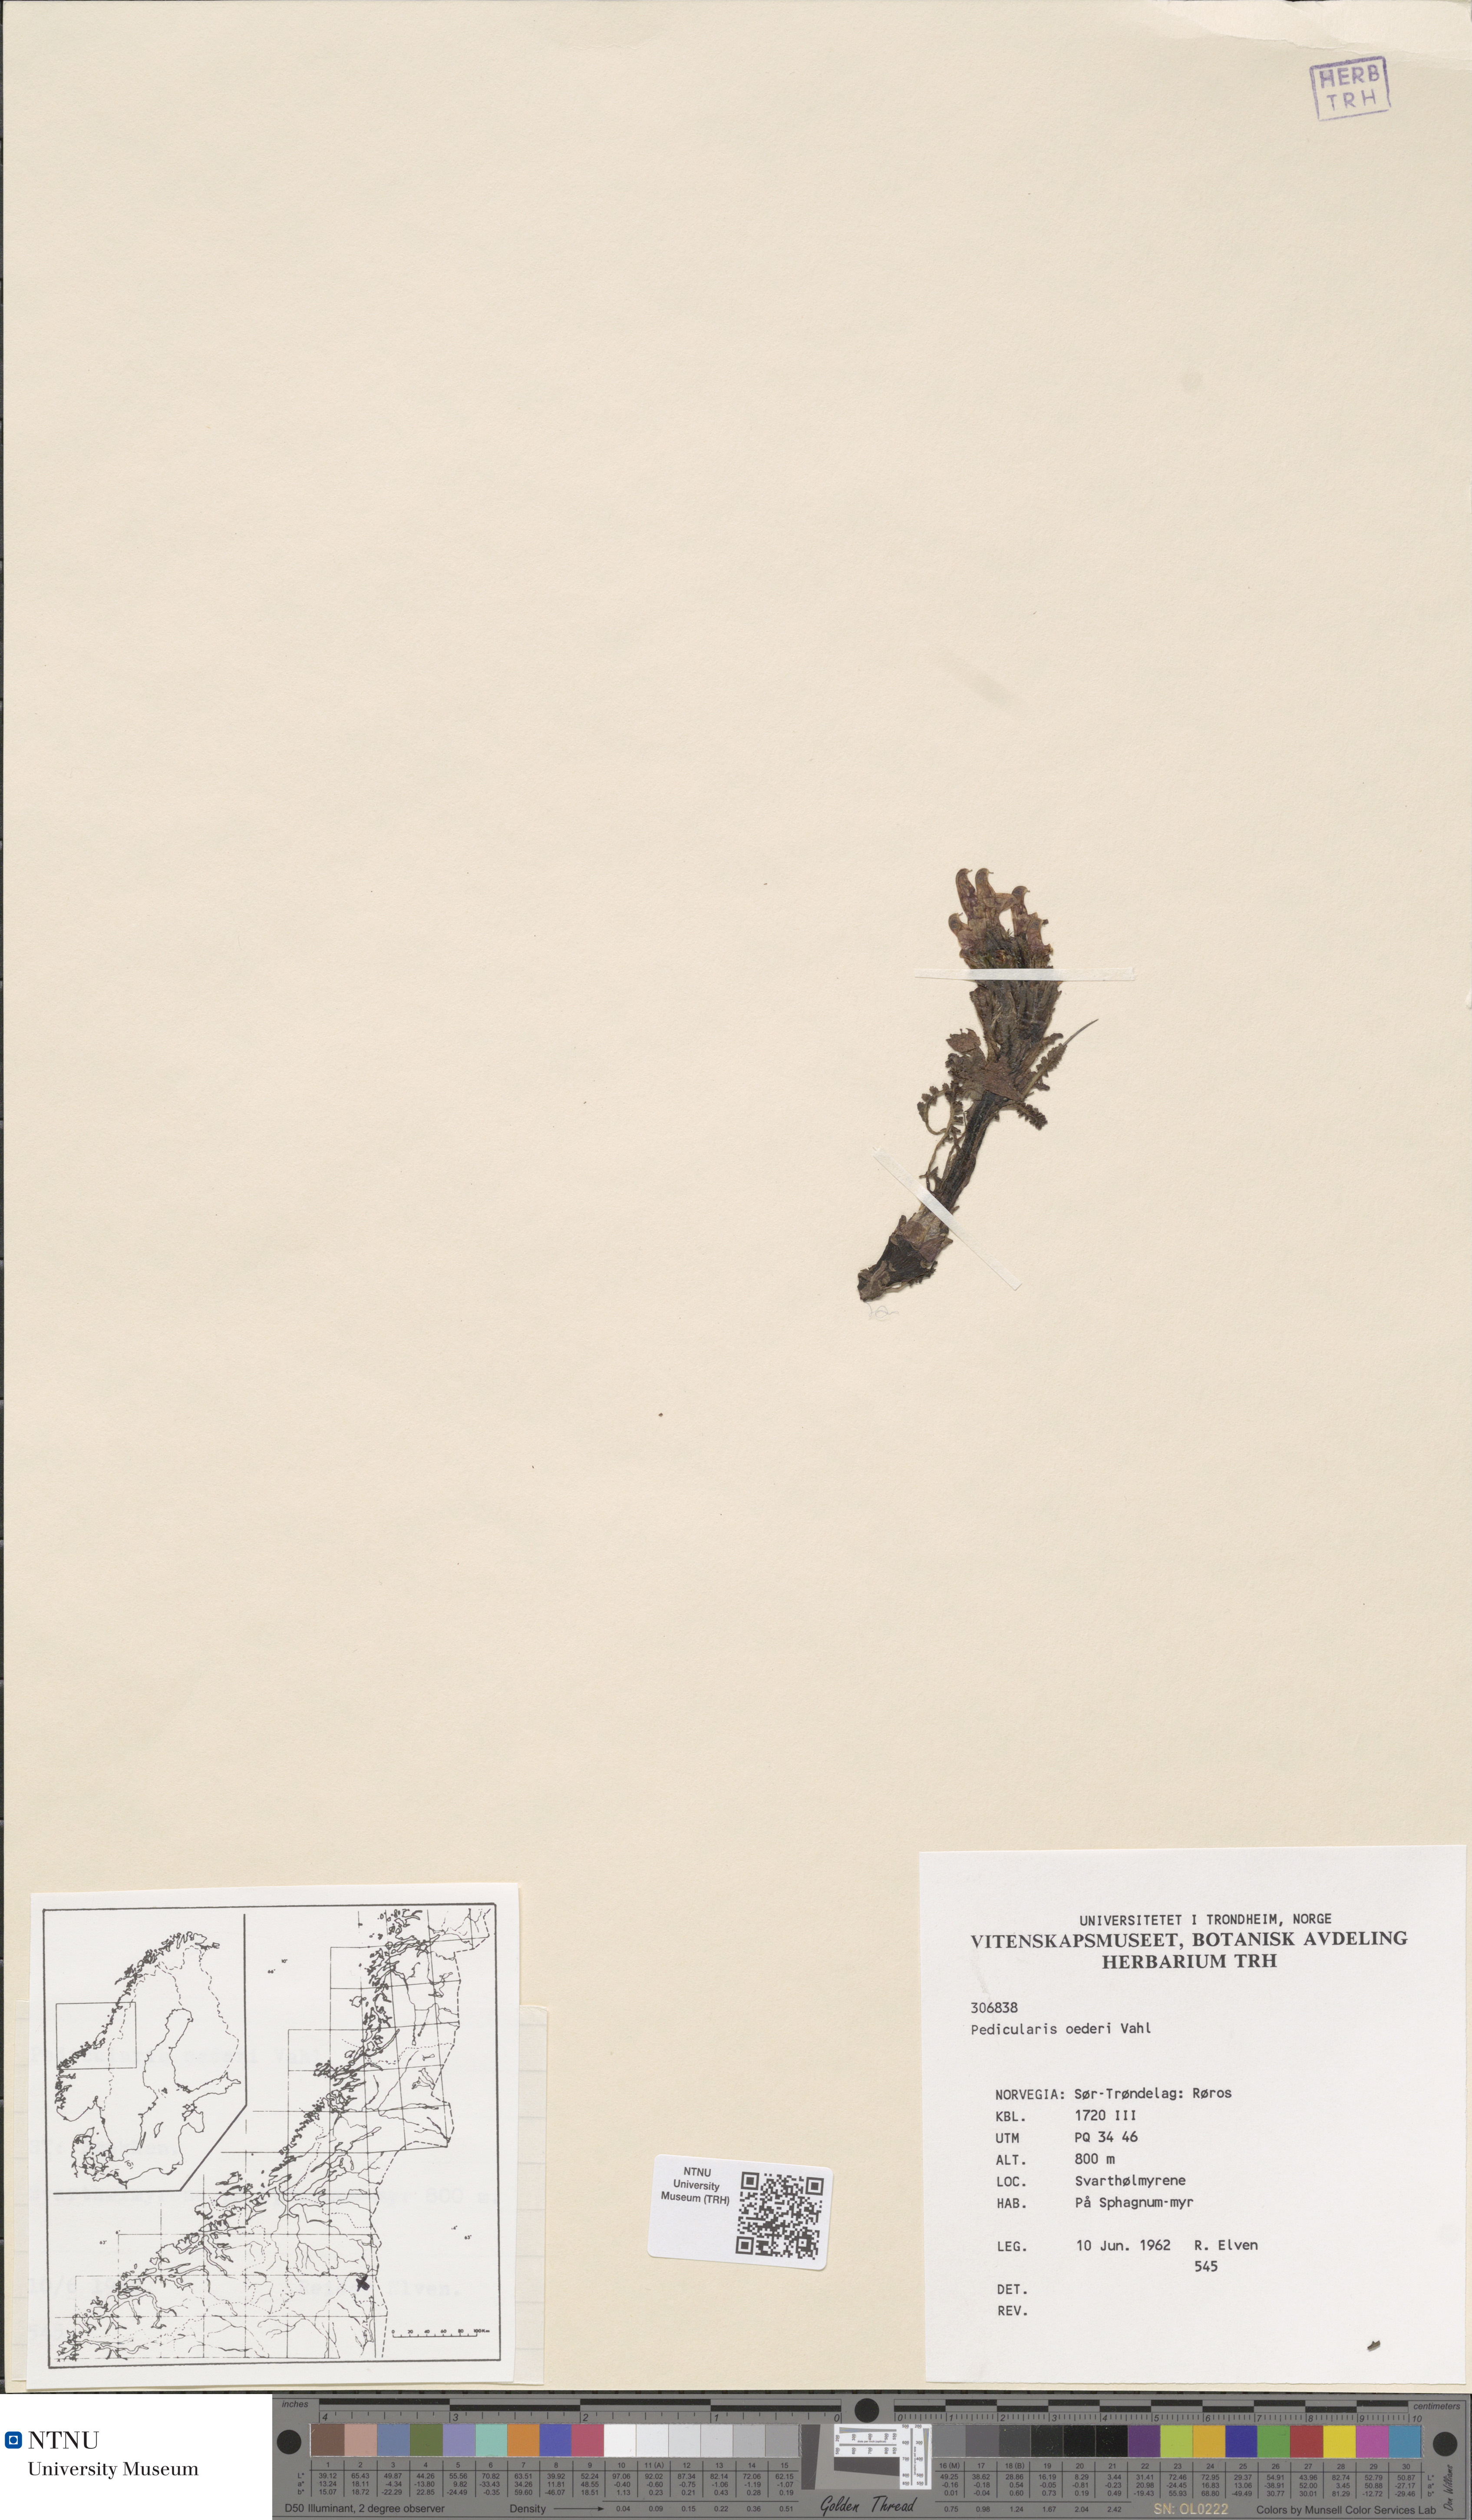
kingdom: Plantae
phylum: Tracheophyta
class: Magnoliopsida
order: Lamiales
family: Orobanchaceae
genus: Pedicularis
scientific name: Pedicularis oederi
